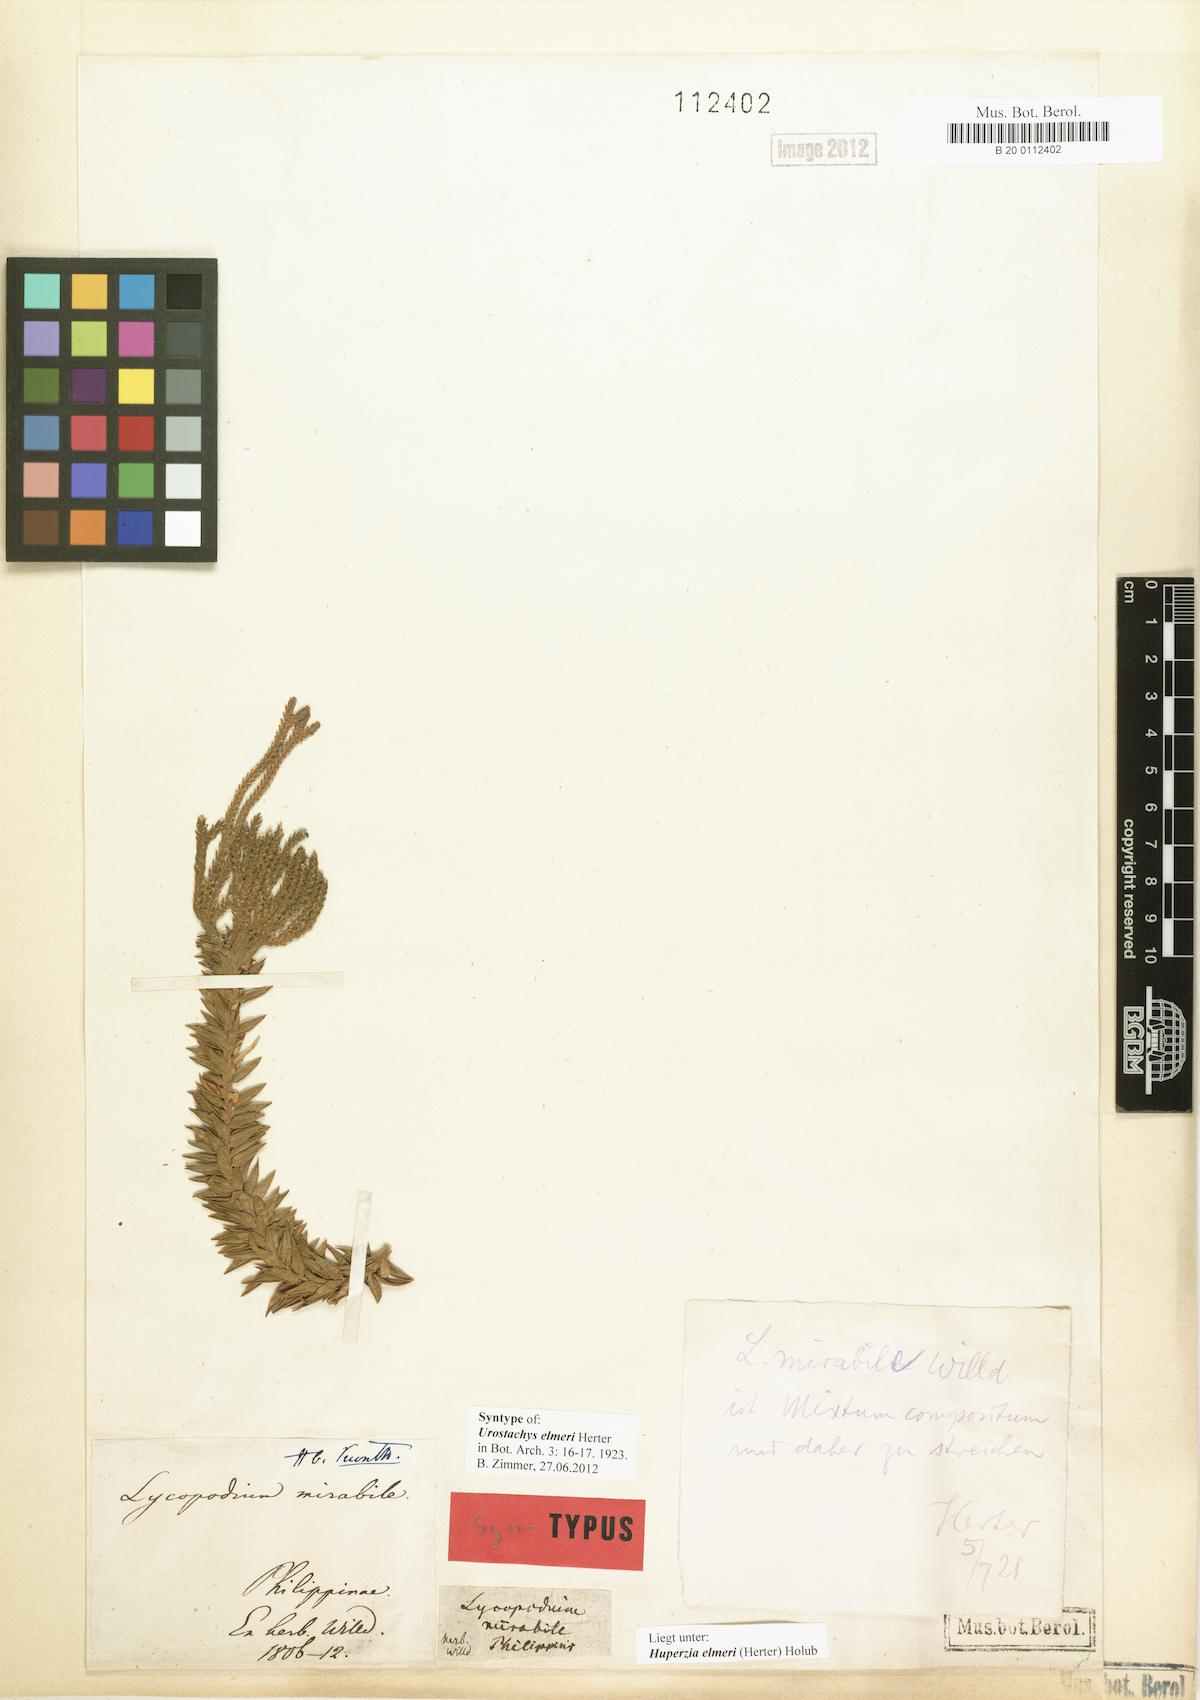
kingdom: Plantae
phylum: Tracheophyta
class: Lycopodiopsida
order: Lycopodiales
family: Lycopodiaceae
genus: Phlegmariurus
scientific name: Phlegmariurus elmeri
